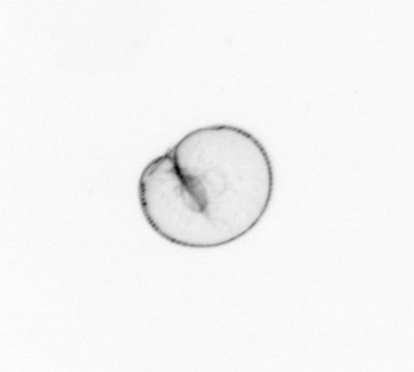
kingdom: Chromista
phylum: Myzozoa
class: Dinophyceae
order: Noctilucales
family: Noctilucaceae
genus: Noctiluca
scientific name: Noctiluca scintillans
